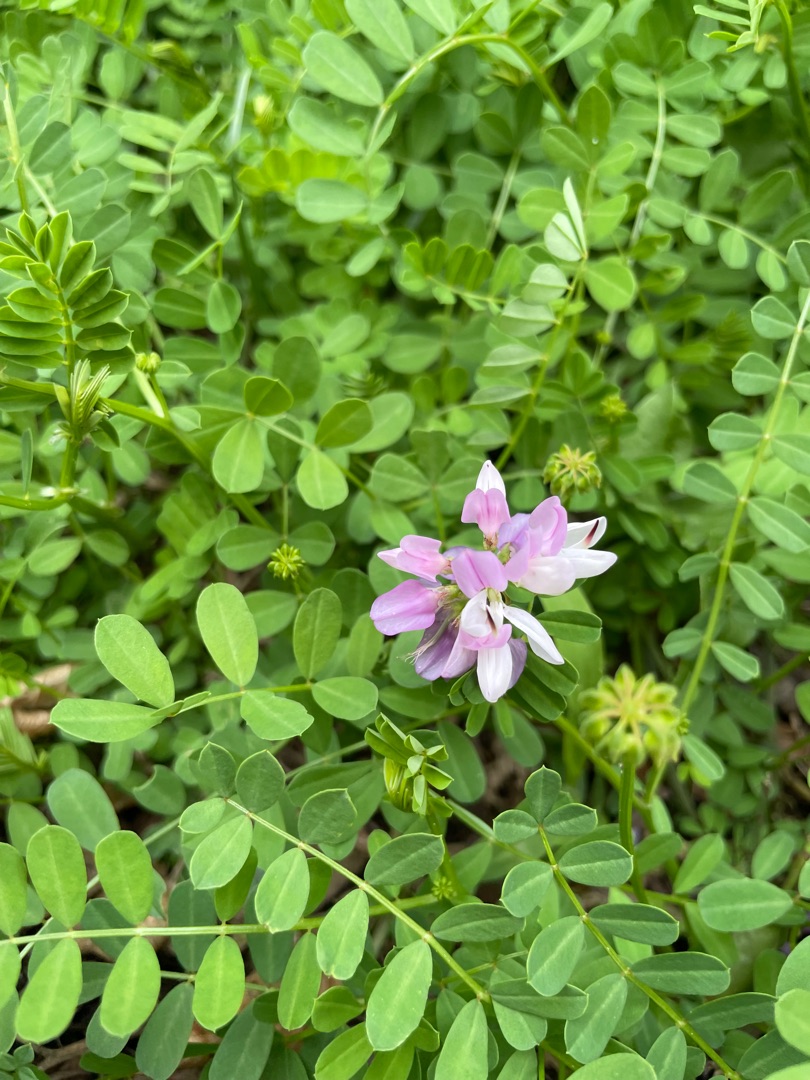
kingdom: Plantae
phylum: Tracheophyta
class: Magnoliopsida
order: Fabales
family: Fabaceae
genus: Coronilla
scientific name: Coronilla varia
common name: Giftig kronvikke
